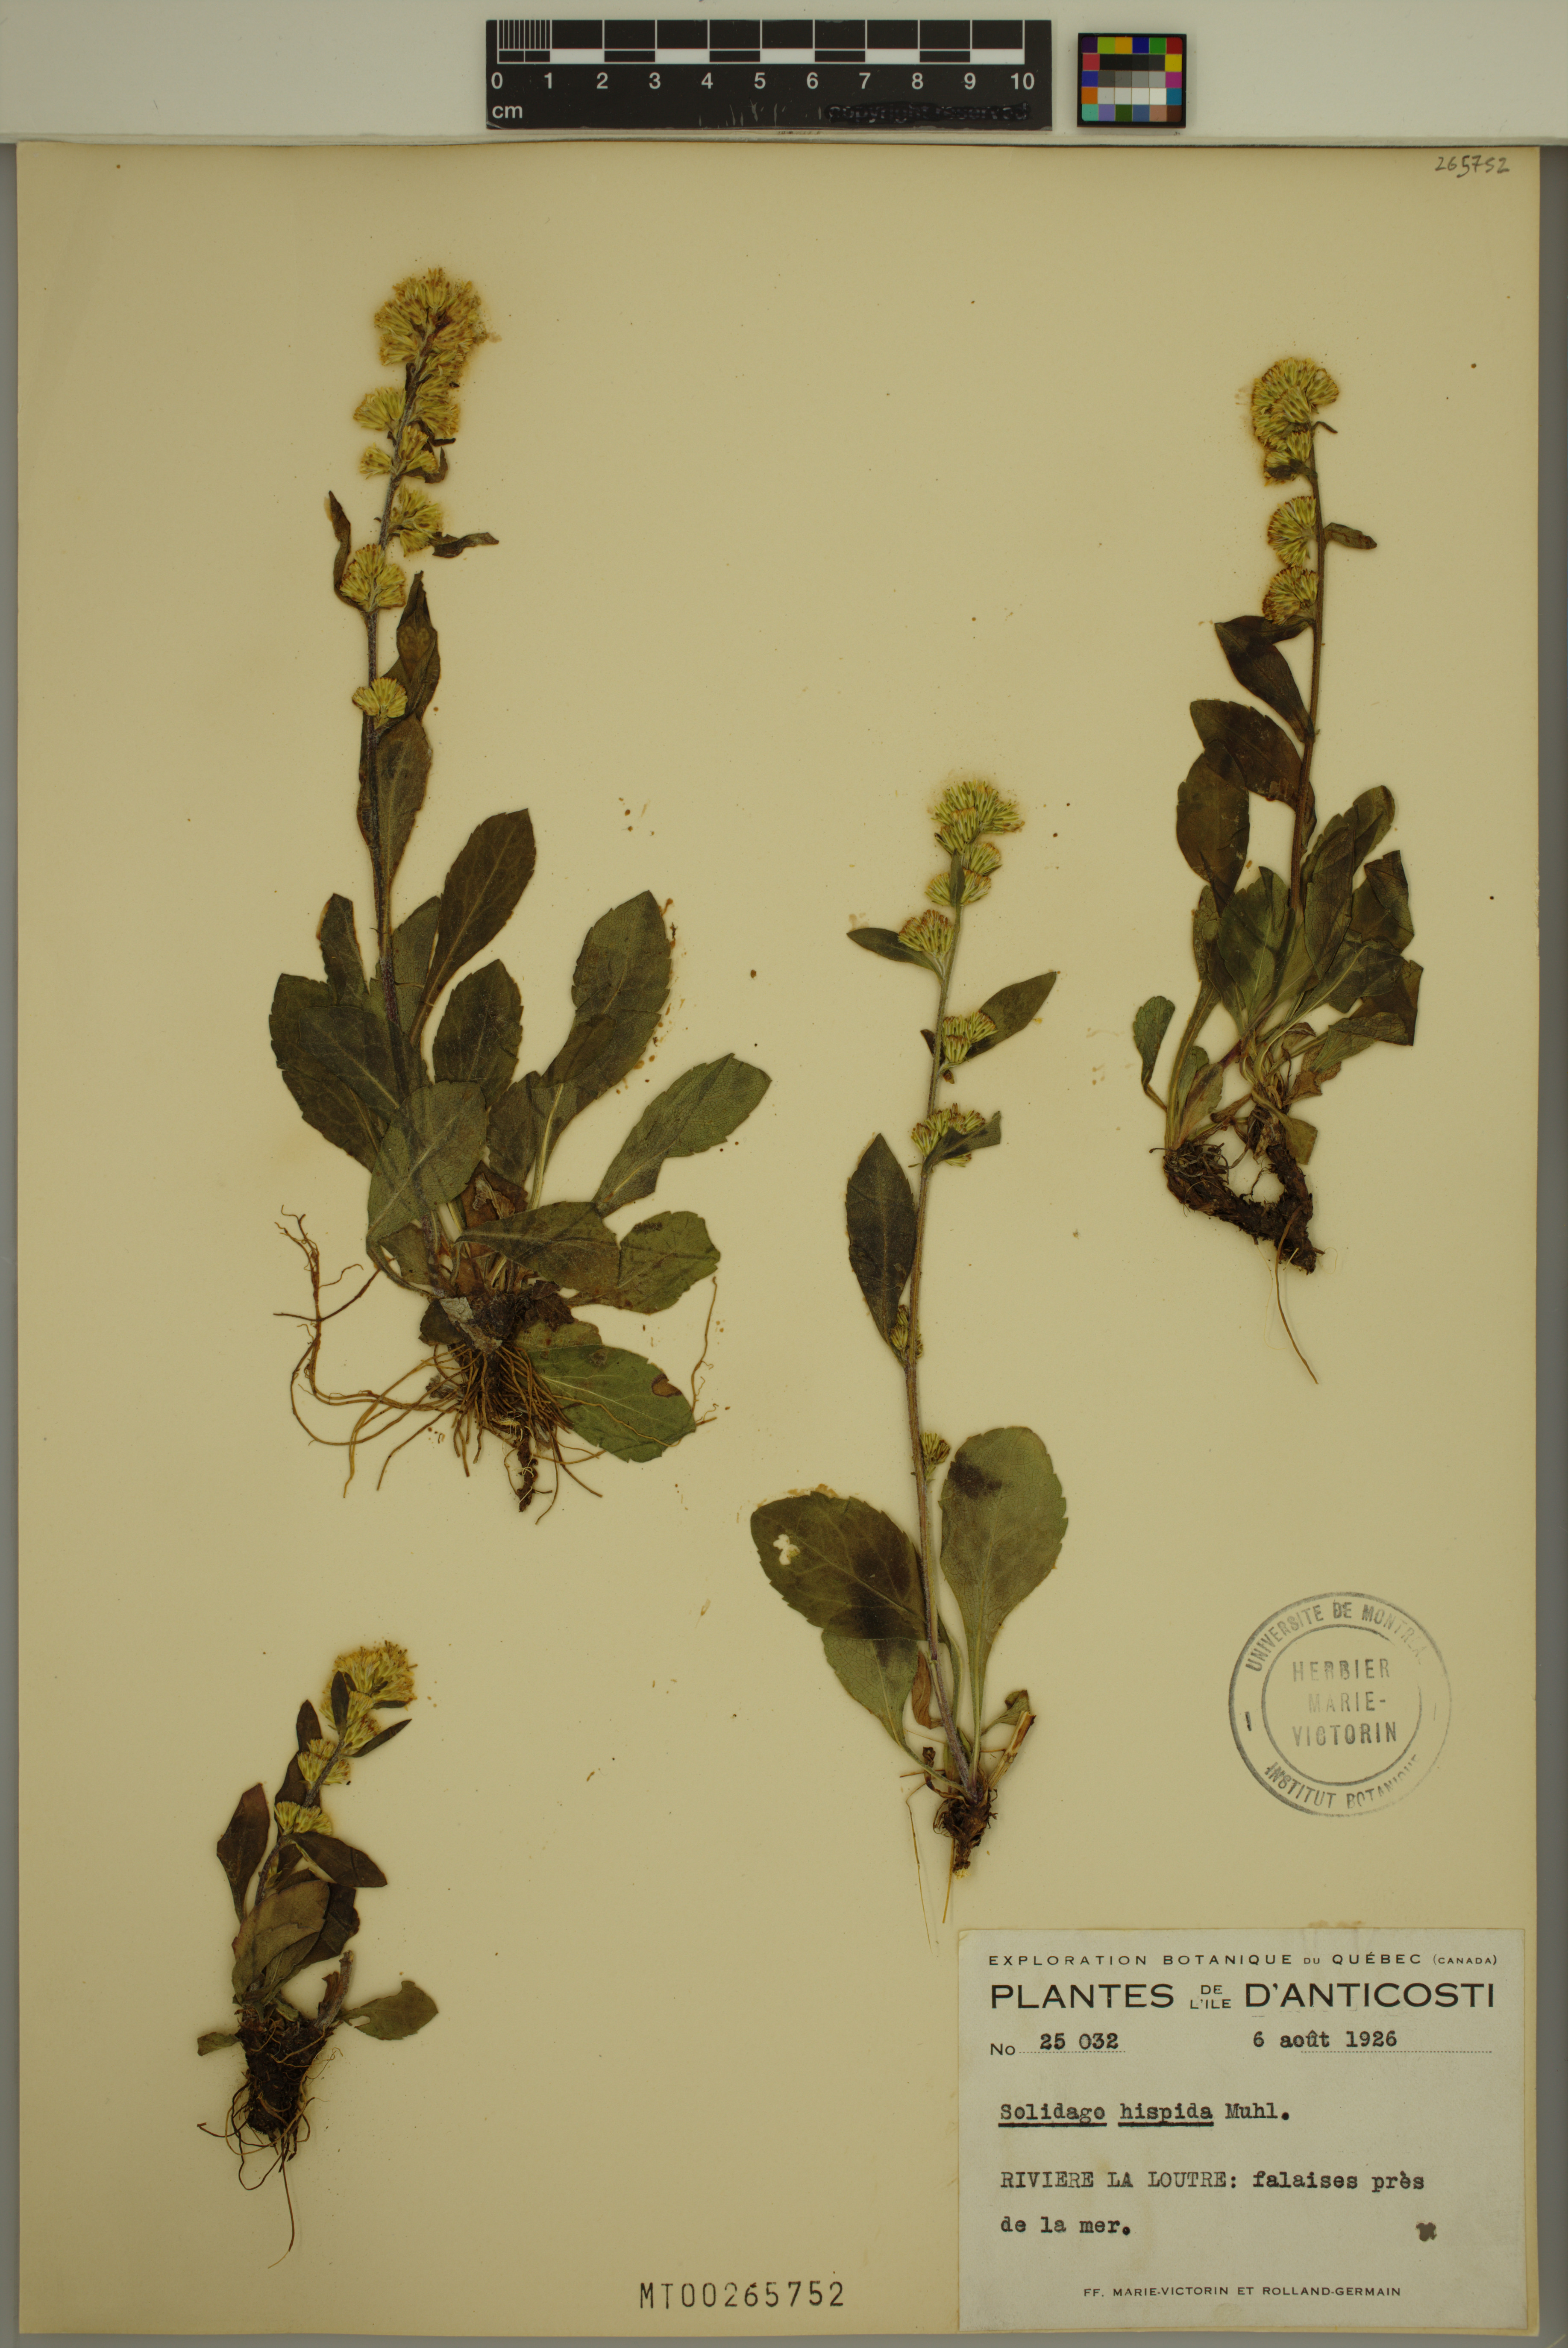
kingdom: Plantae
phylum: Tracheophyta
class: Magnoliopsida
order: Asterales
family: Asteraceae
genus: Solidago
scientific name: Solidago hispida
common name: Hairy goldenrod
